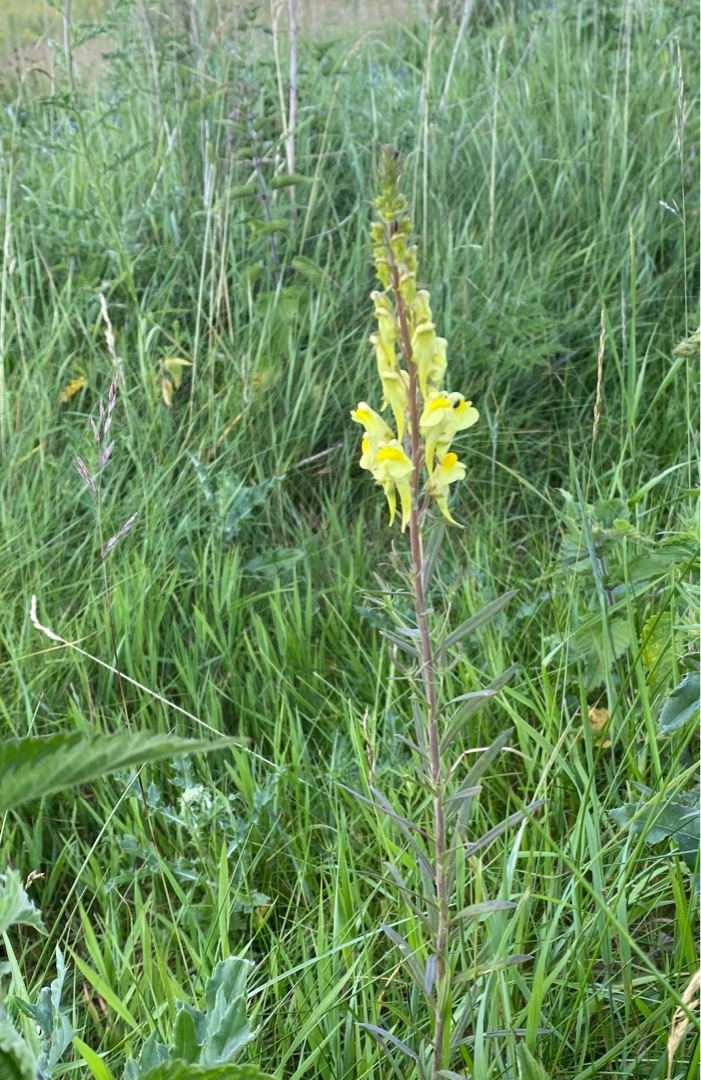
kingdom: Plantae
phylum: Tracheophyta
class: Magnoliopsida
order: Lamiales
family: Plantaginaceae
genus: Linaria
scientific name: Linaria vulgaris
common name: Almindelig torskemund
